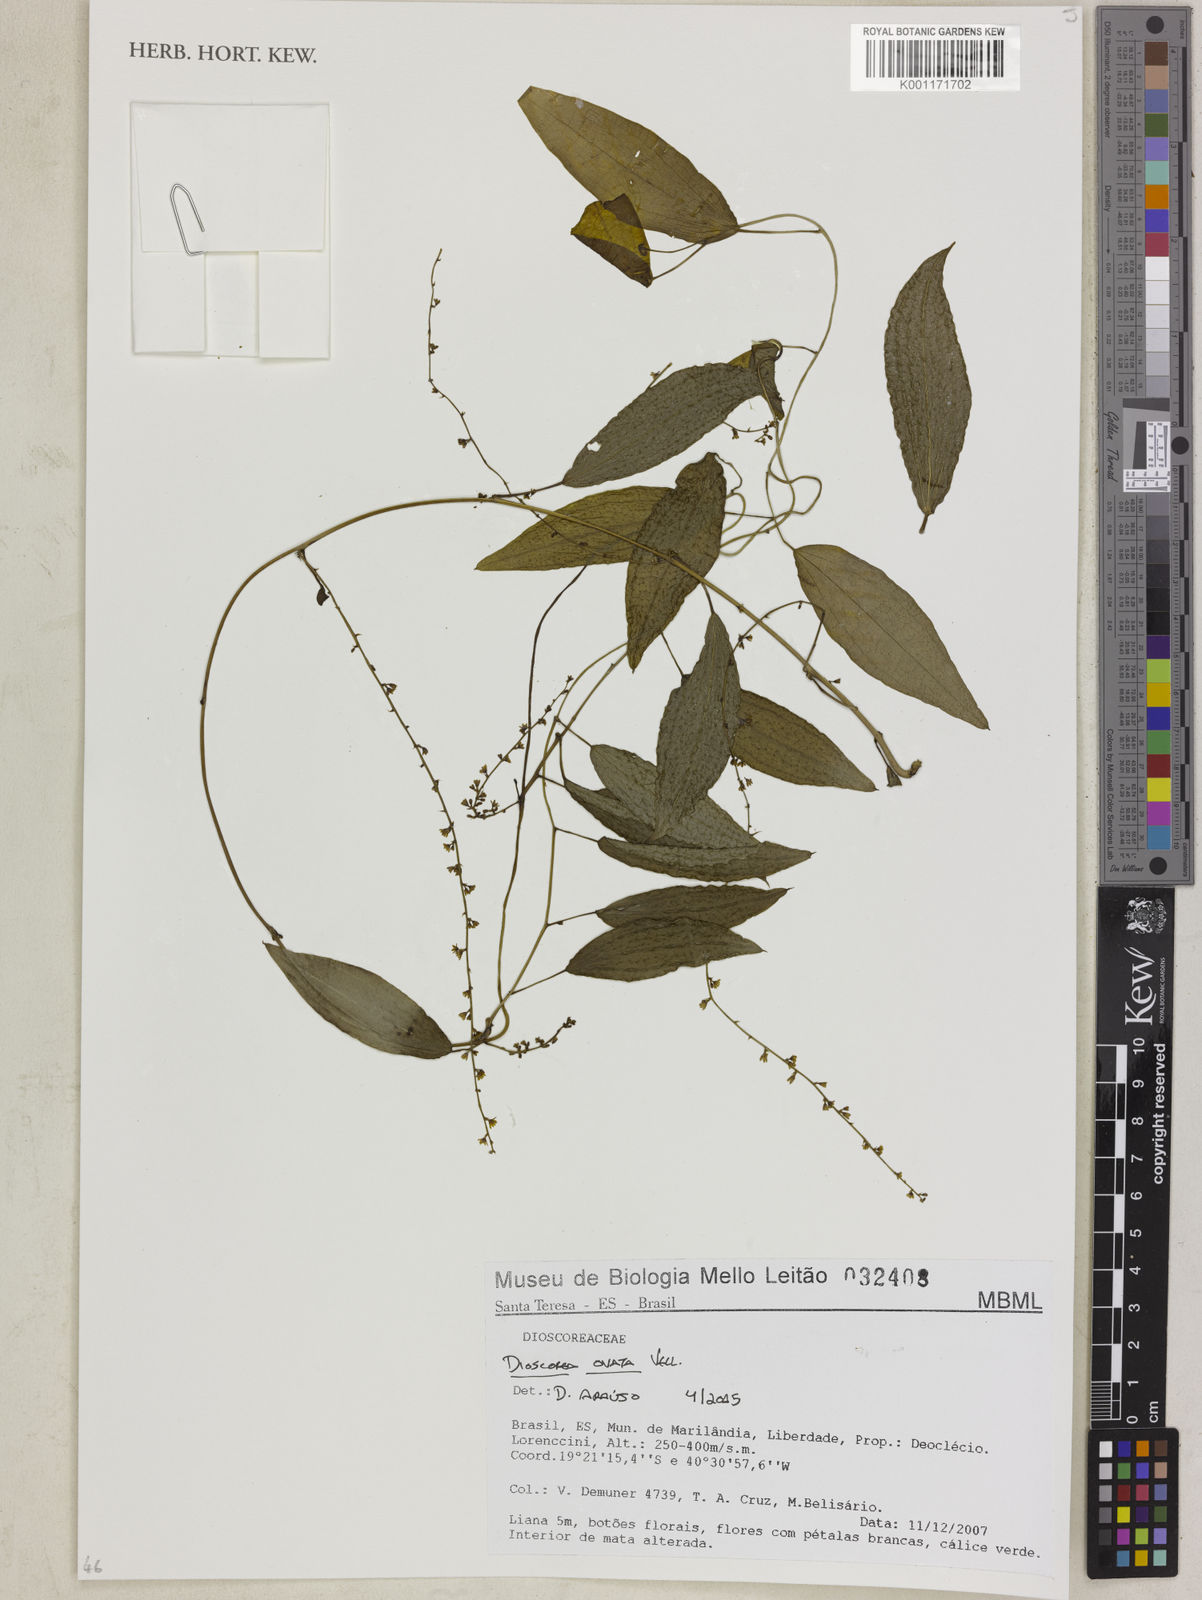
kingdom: Plantae
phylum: Tracheophyta
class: Liliopsida
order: Dioscoreales
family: Dioscoreaceae
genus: Dioscorea
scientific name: Dioscorea ovata
